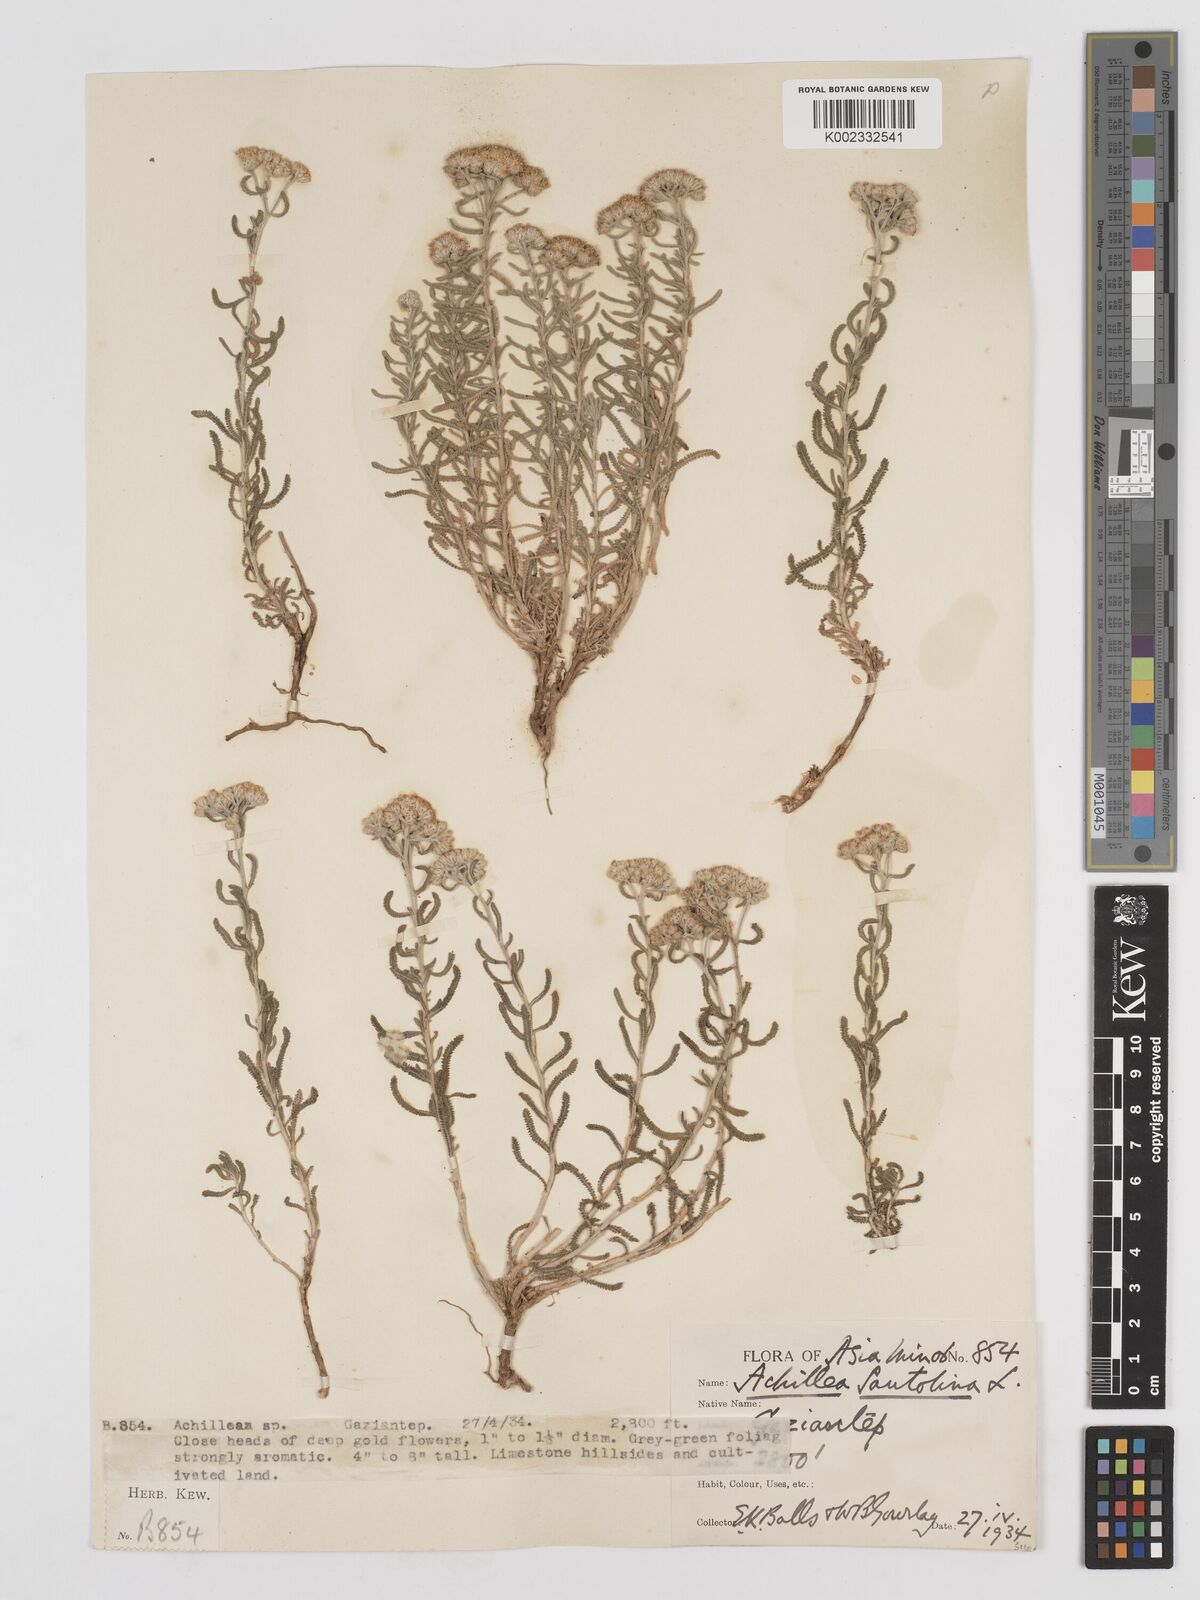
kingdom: Plantae
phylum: Tracheophyta
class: Magnoliopsida
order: Asterales
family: Asteraceae
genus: Achillea
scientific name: Achillea tenuifolia
